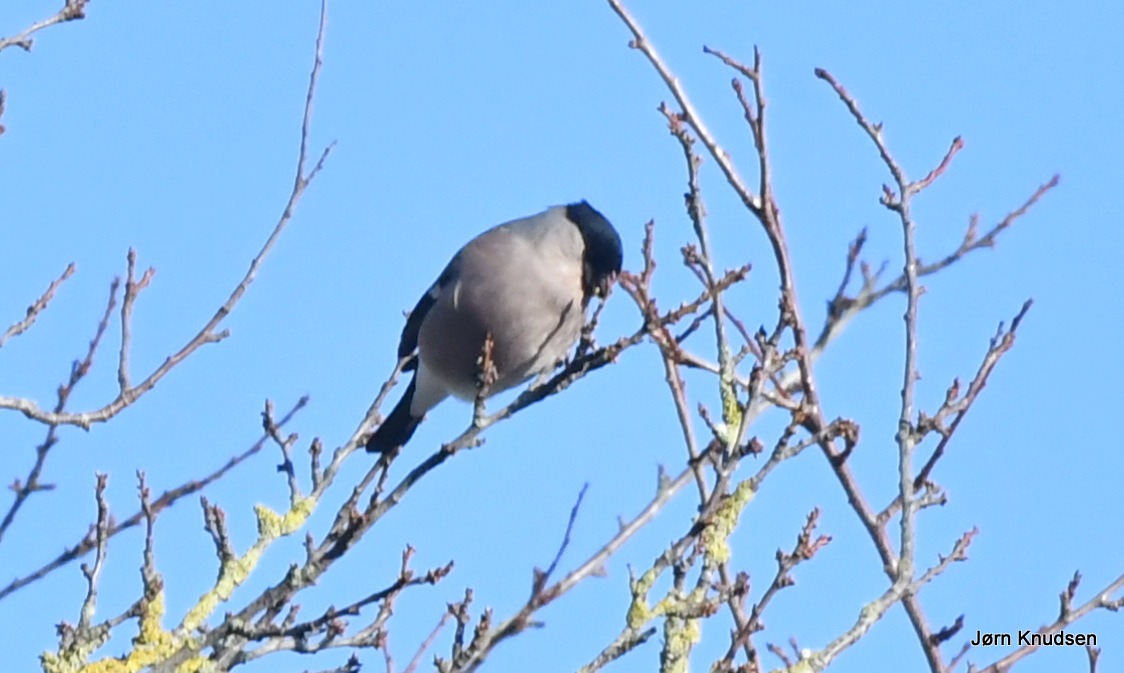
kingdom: Animalia
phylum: Chordata
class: Aves
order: Passeriformes
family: Fringillidae
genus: Pyrrhula
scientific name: Pyrrhula pyrrhula
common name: Dompap
